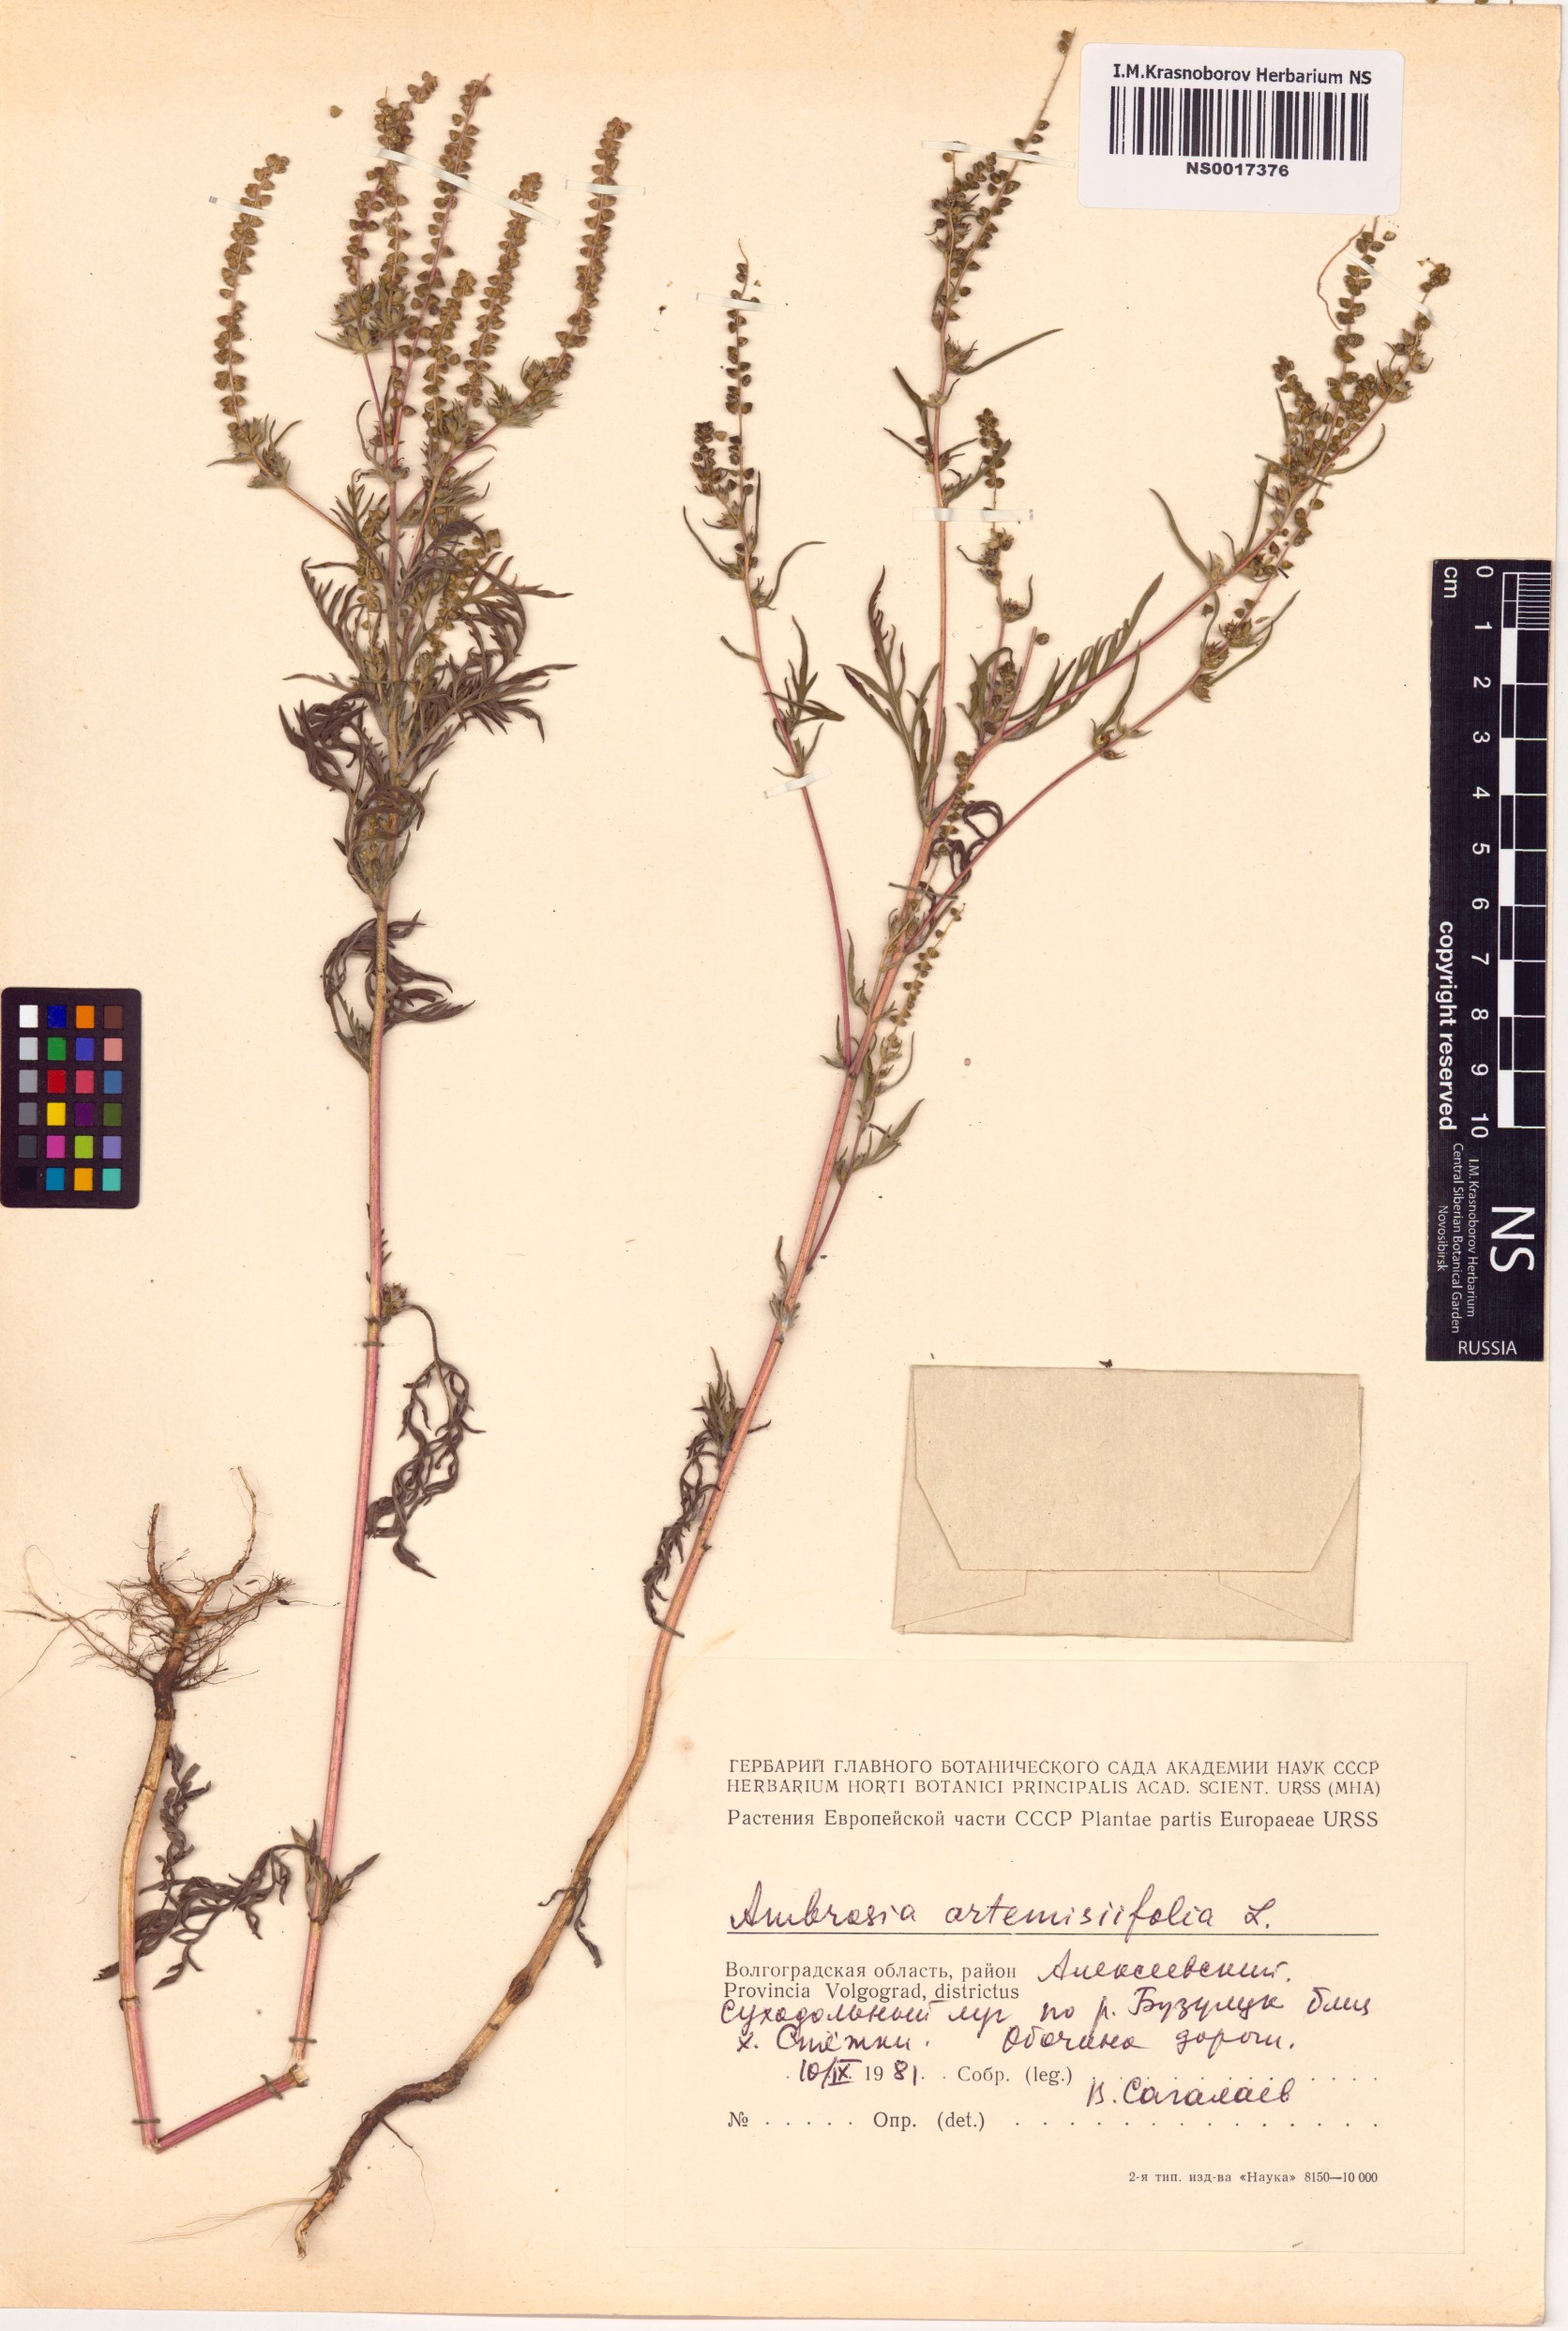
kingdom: Plantae
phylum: Tracheophyta
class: Magnoliopsida
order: Asterales
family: Asteraceae
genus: Ambrosia
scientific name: Ambrosia artemisiifolia
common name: Annual ragweed
